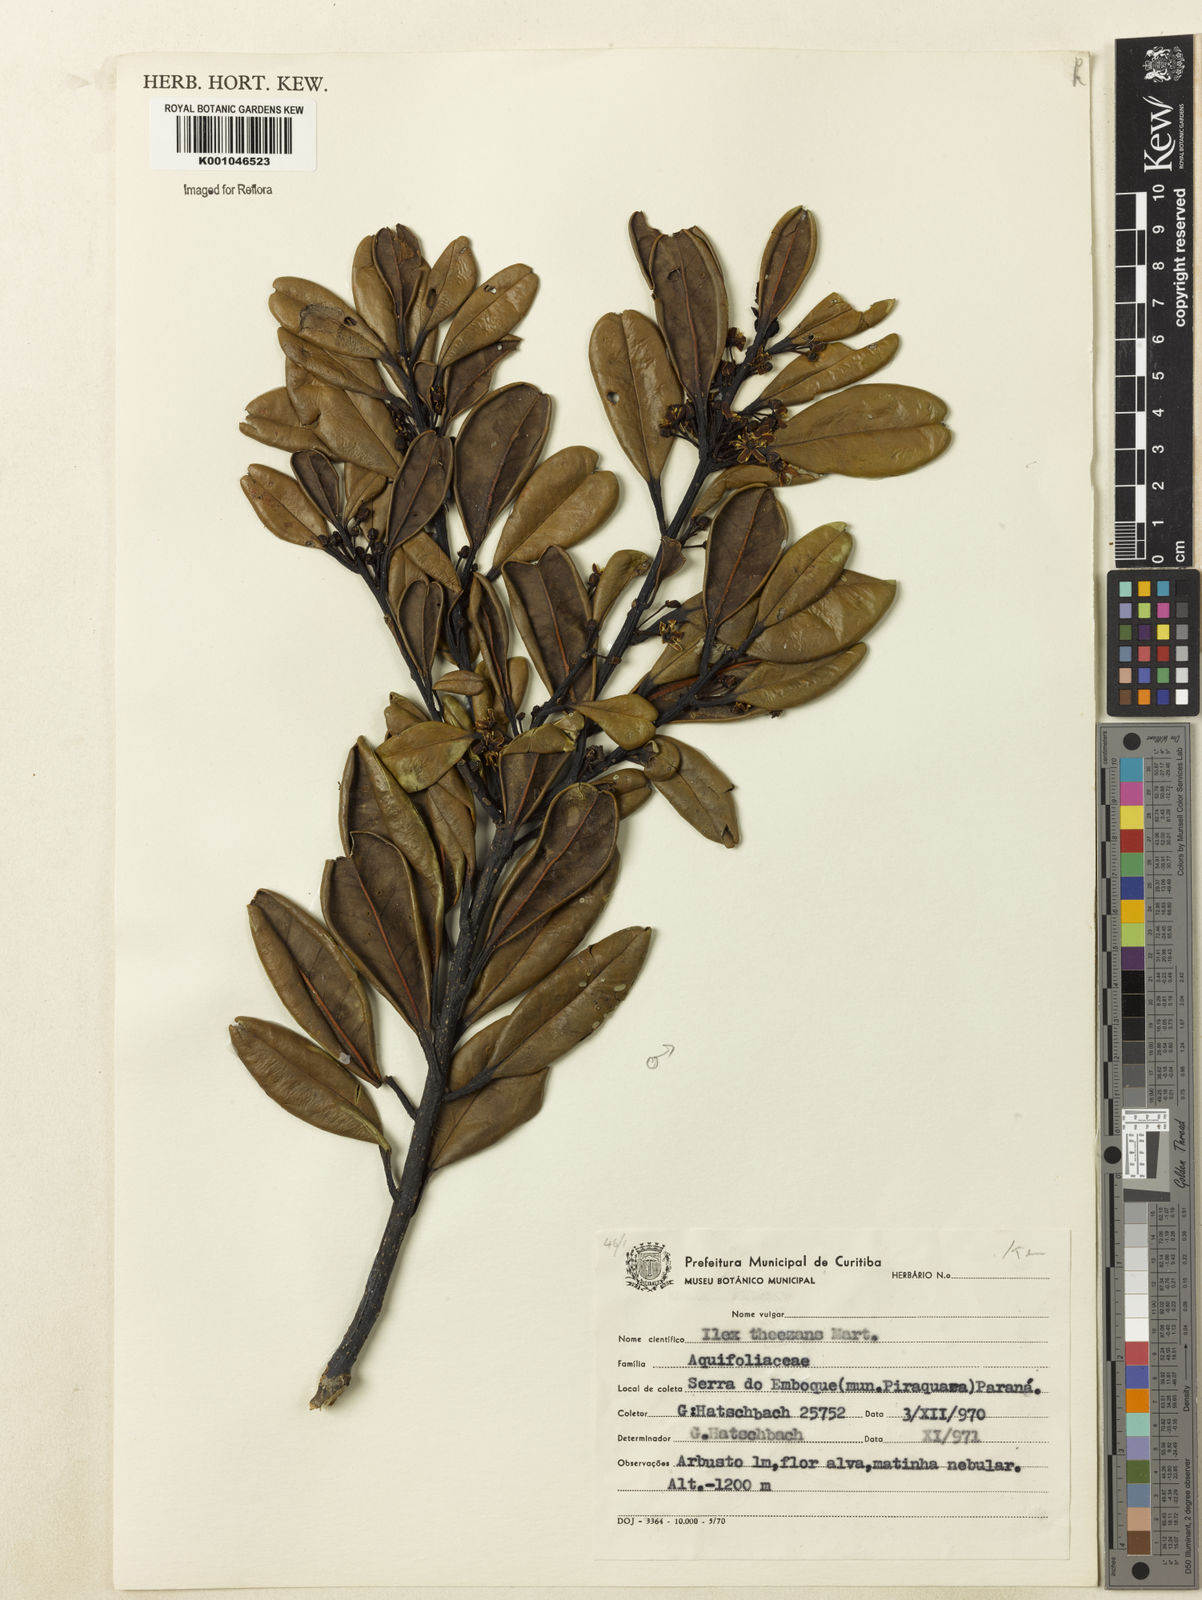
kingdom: Plantae
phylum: Tracheophyta
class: Magnoliopsida
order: Aquifoliales
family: Aquifoliaceae
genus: Ilex
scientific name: Ilex theezans
